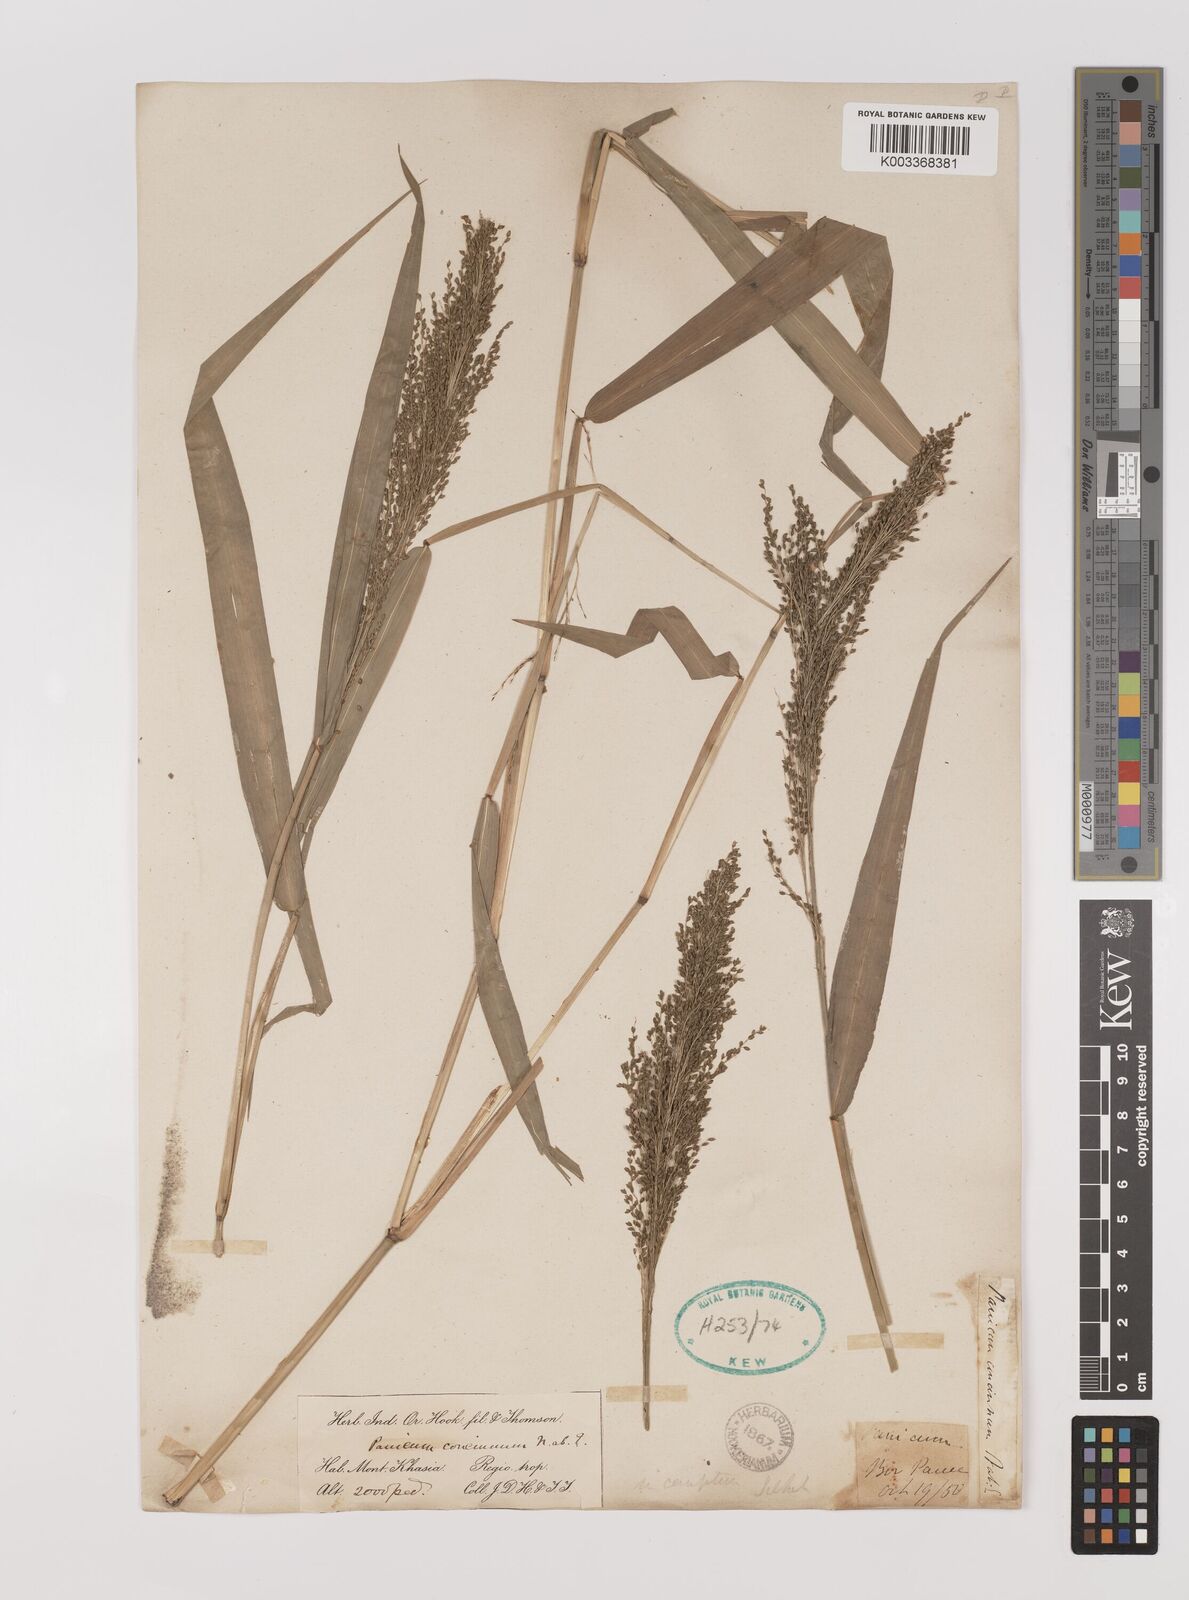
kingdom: Plantae
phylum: Tracheophyta
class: Liliopsida
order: Poales
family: Poaceae
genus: Panicum
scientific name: Panicum sarmentosum
